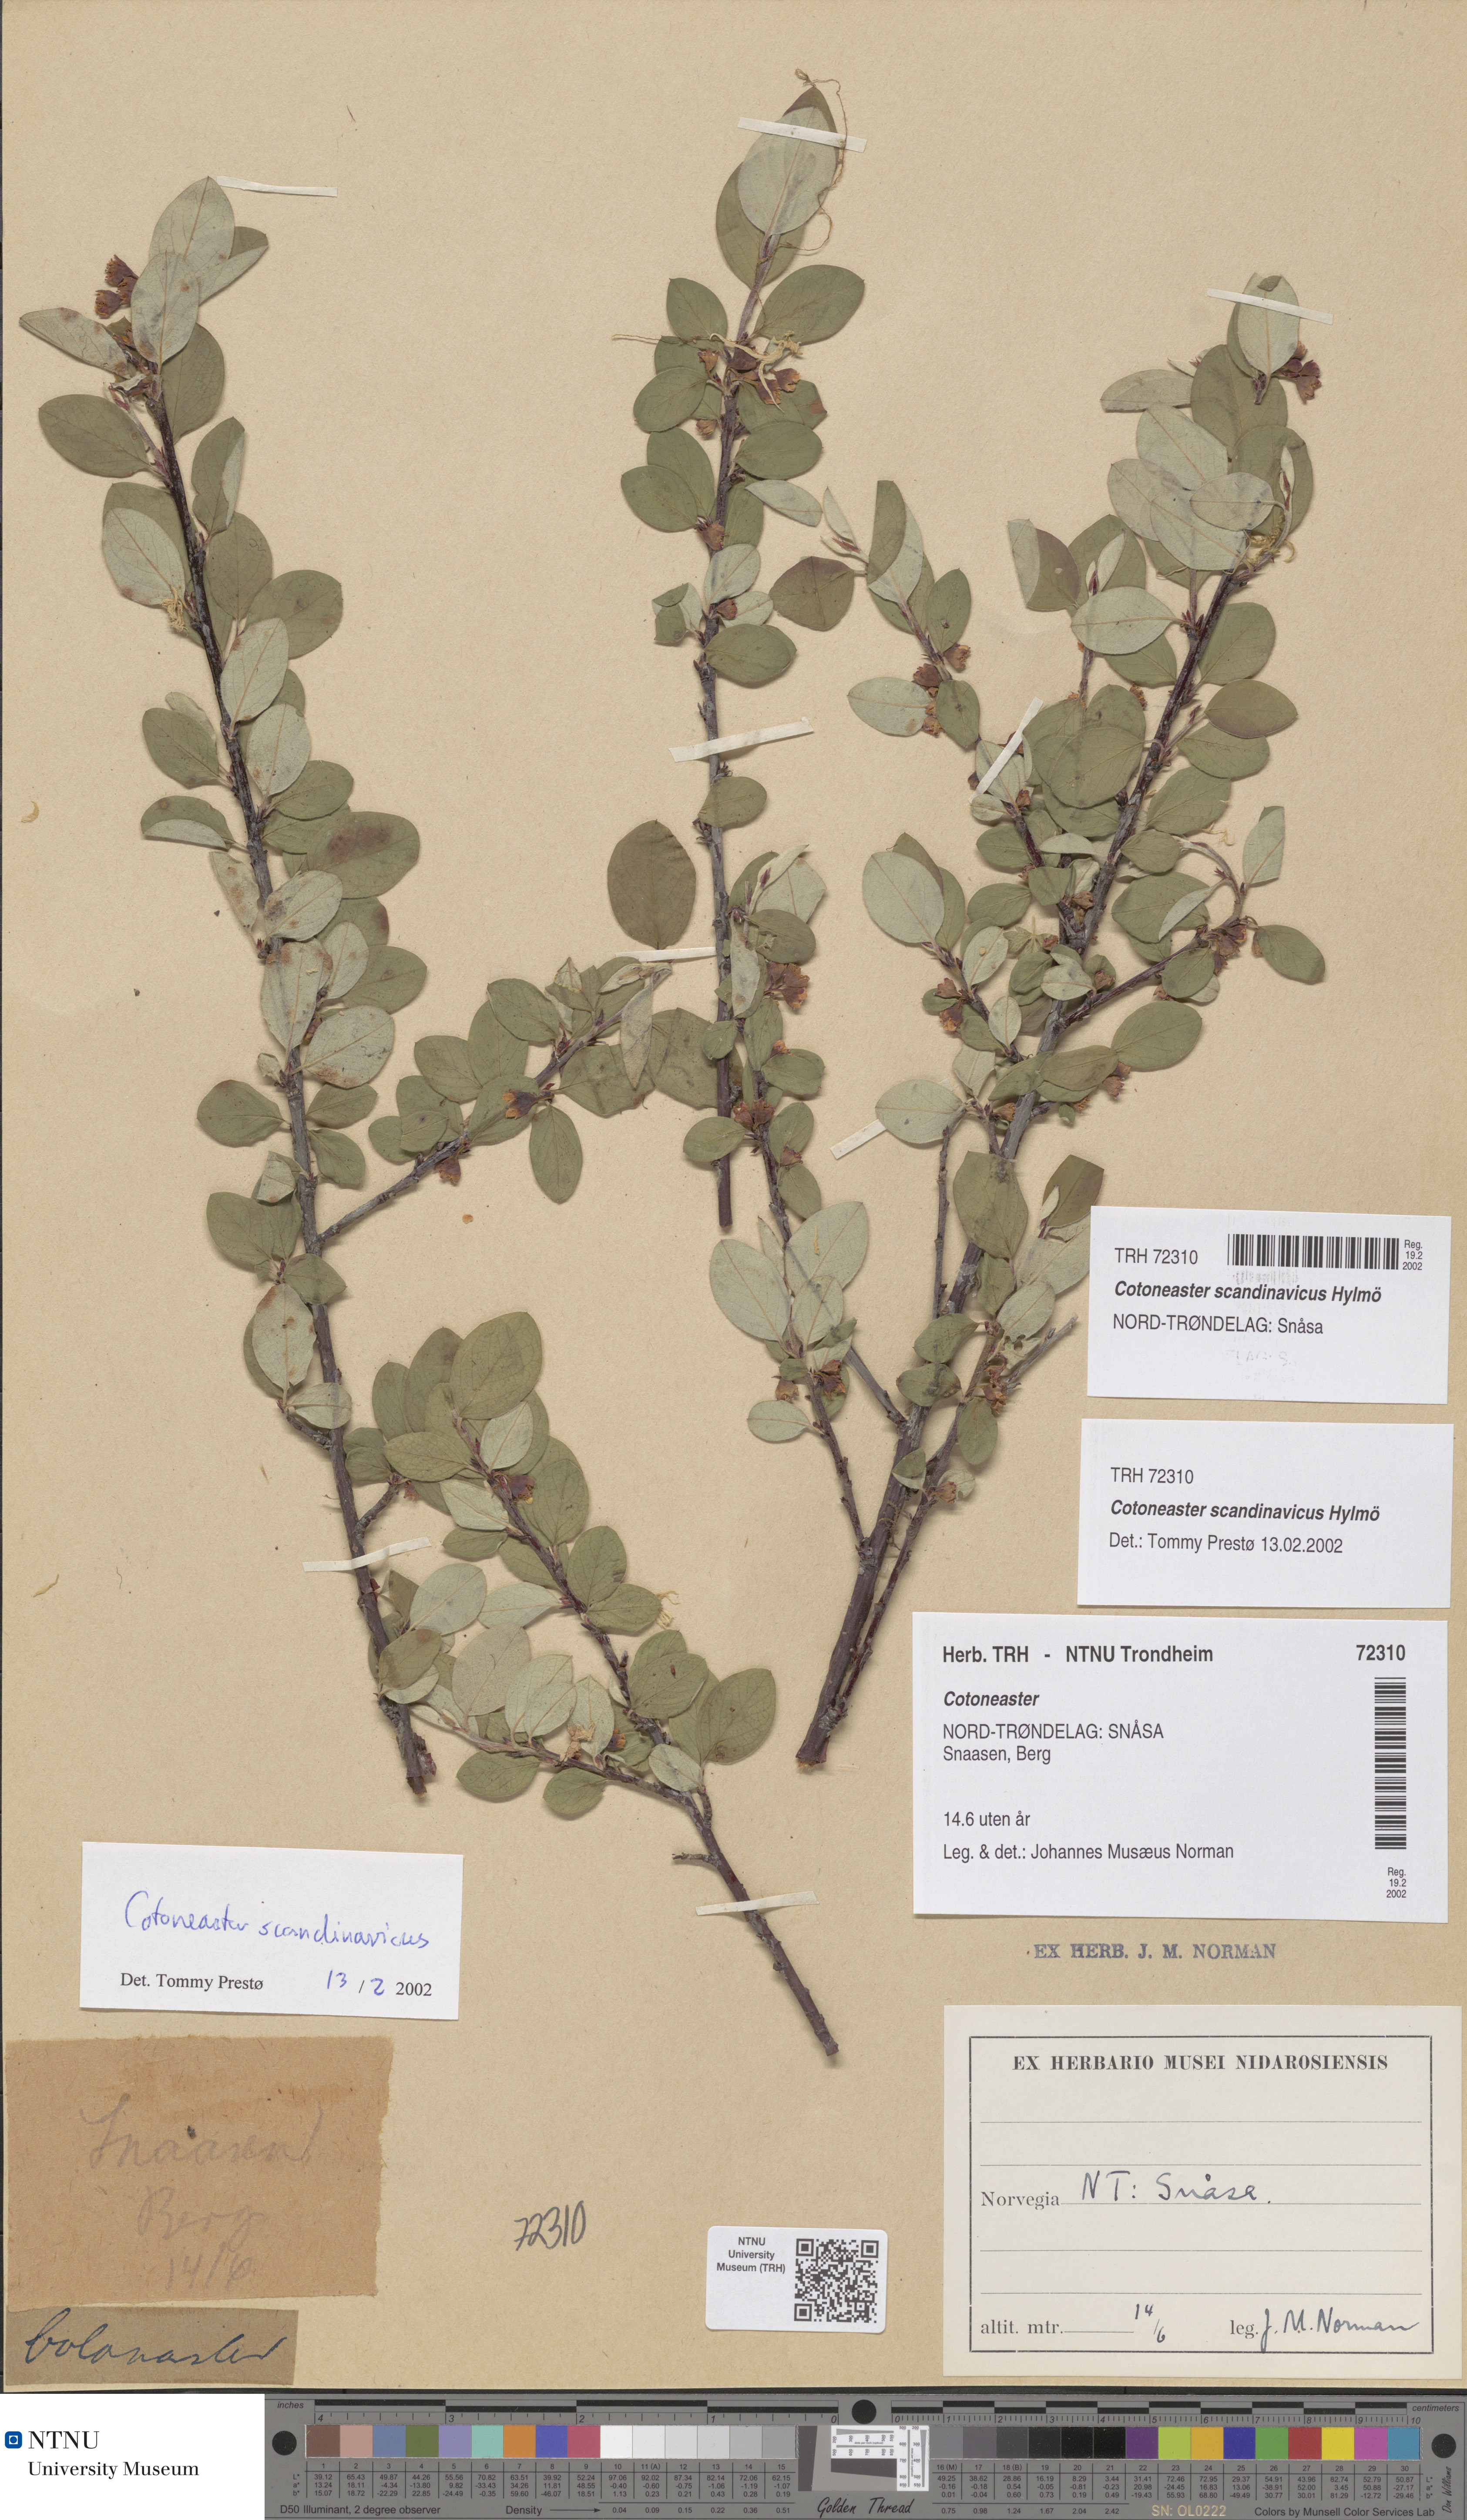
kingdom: Plantae
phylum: Tracheophyta
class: Magnoliopsida
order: Rosales
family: Rosaceae
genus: Cotoneaster
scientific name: Cotoneaster integerrimus
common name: Wild cotoneaster
